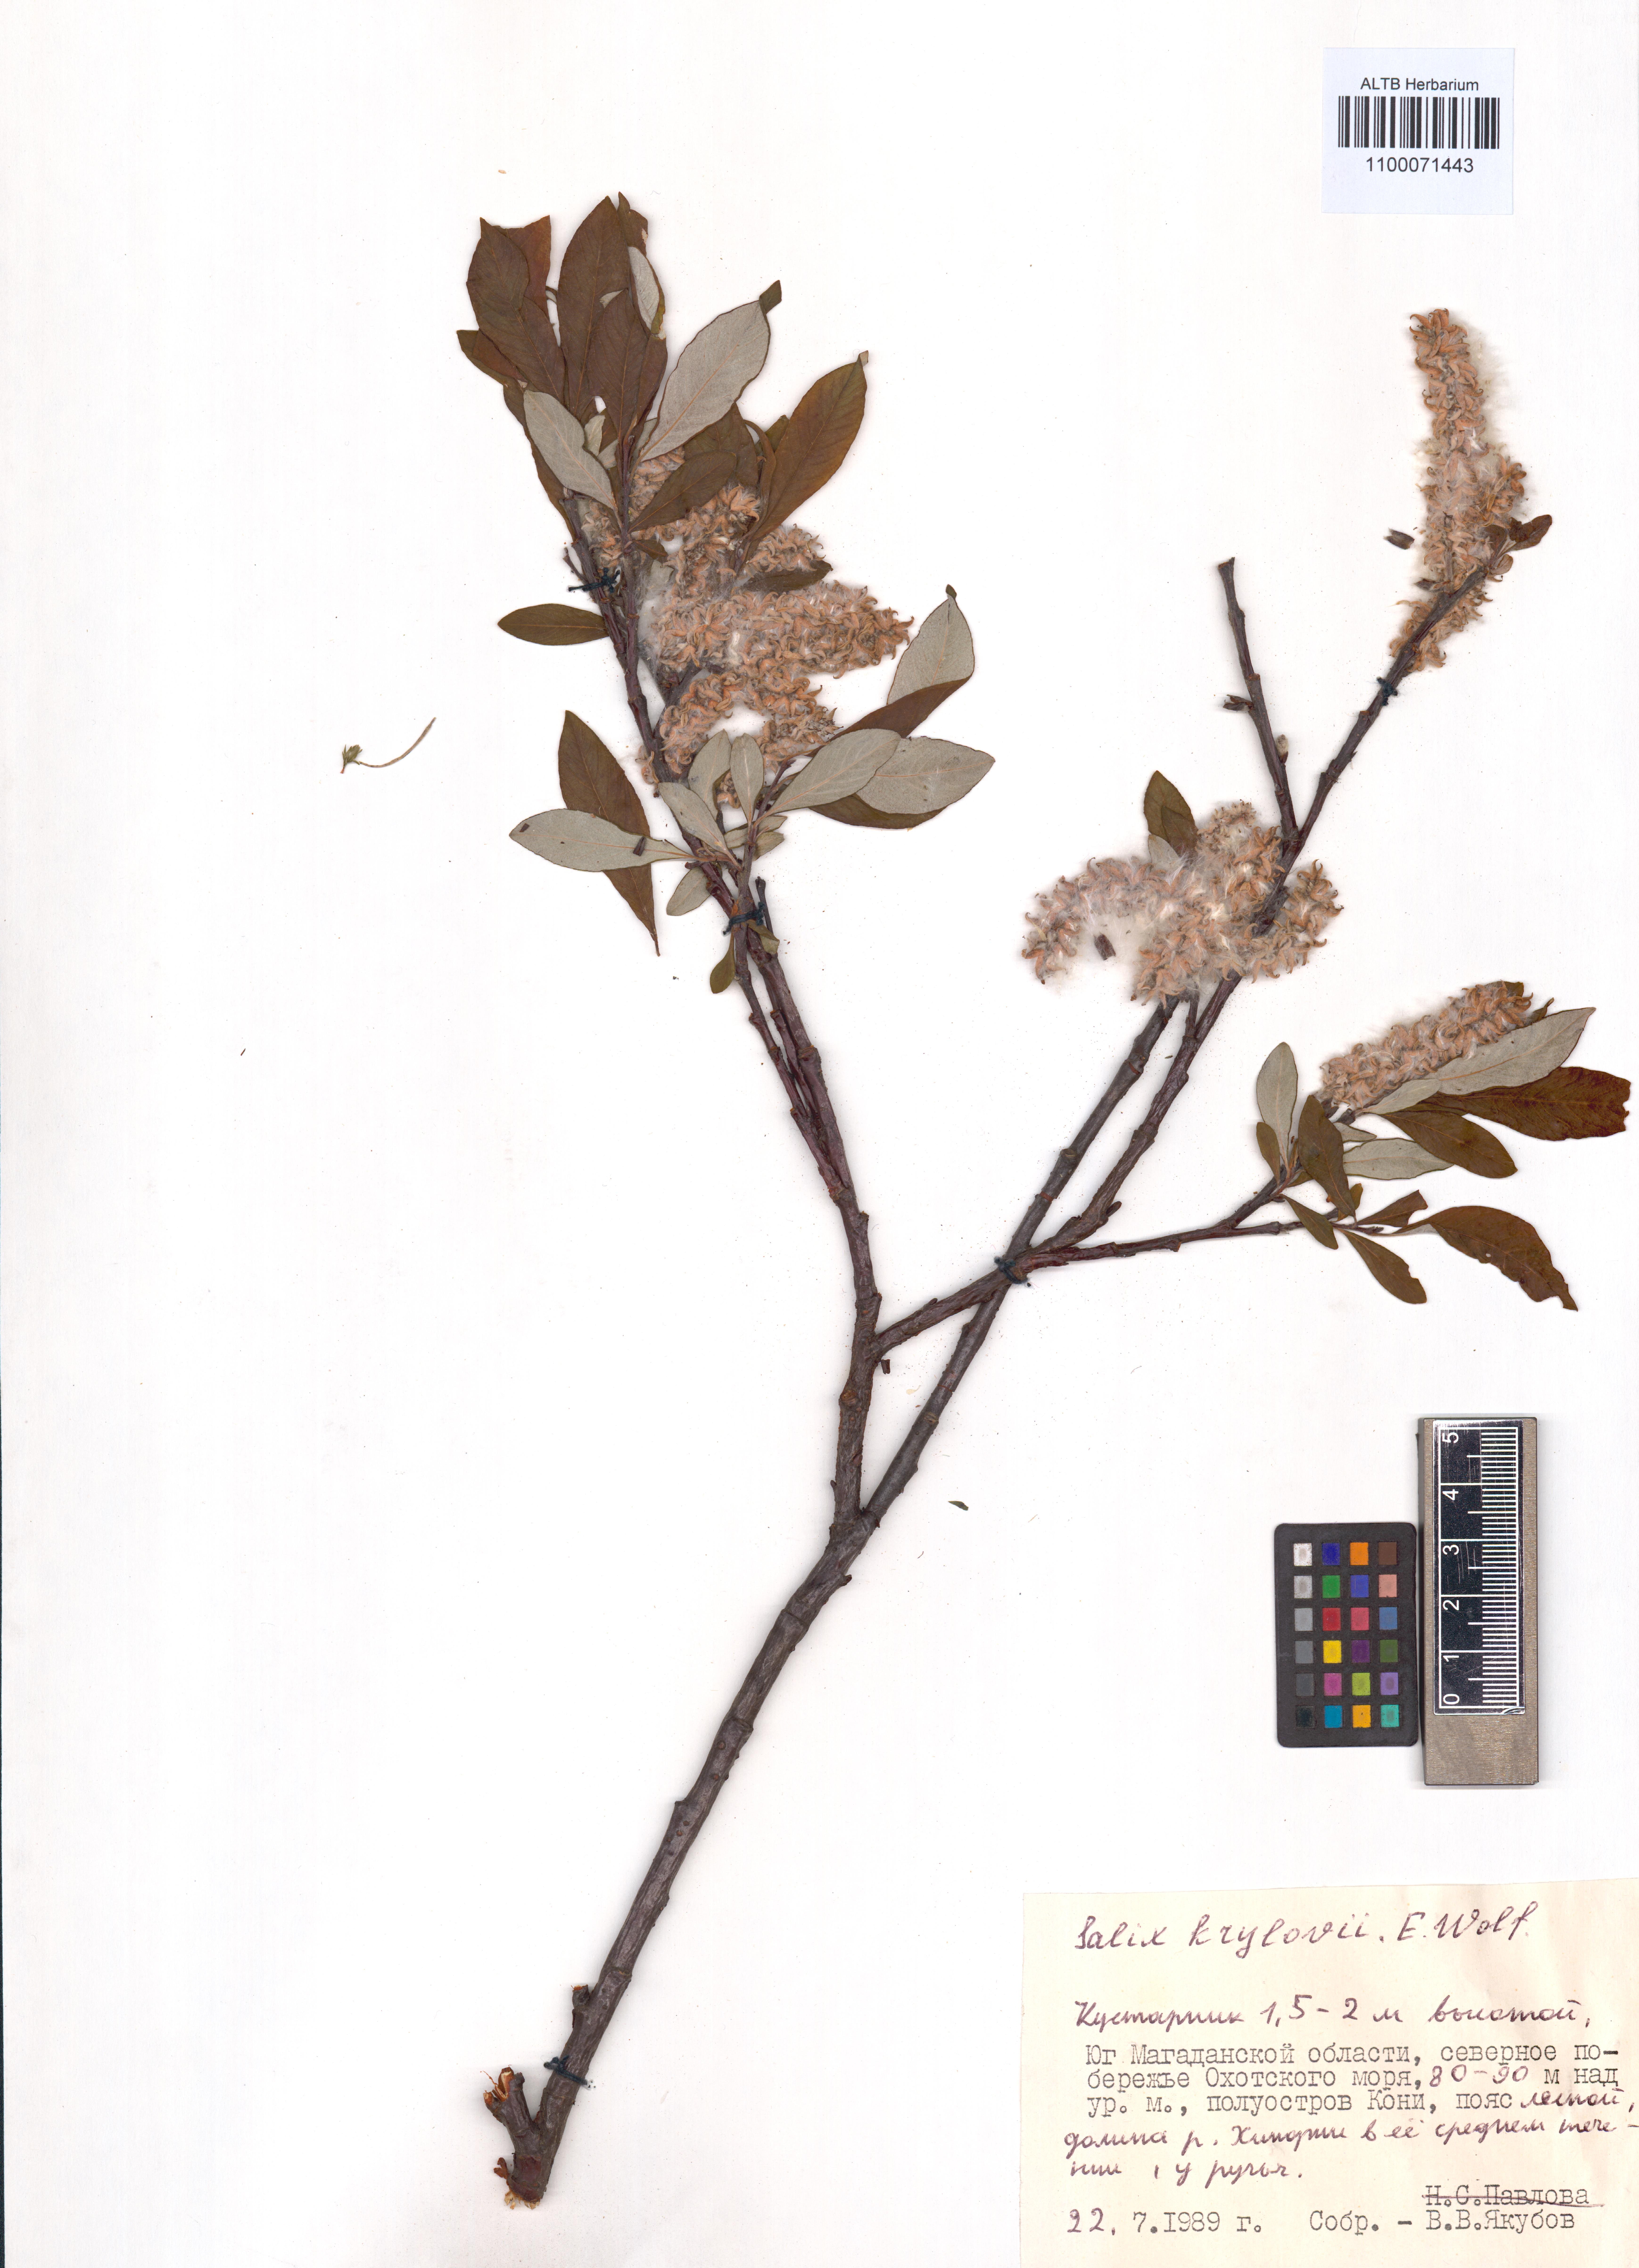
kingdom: Plantae
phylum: Tracheophyta
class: Magnoliopsida
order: Malpighiales
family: Salicaceae
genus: Salix
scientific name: Salix krylovii
